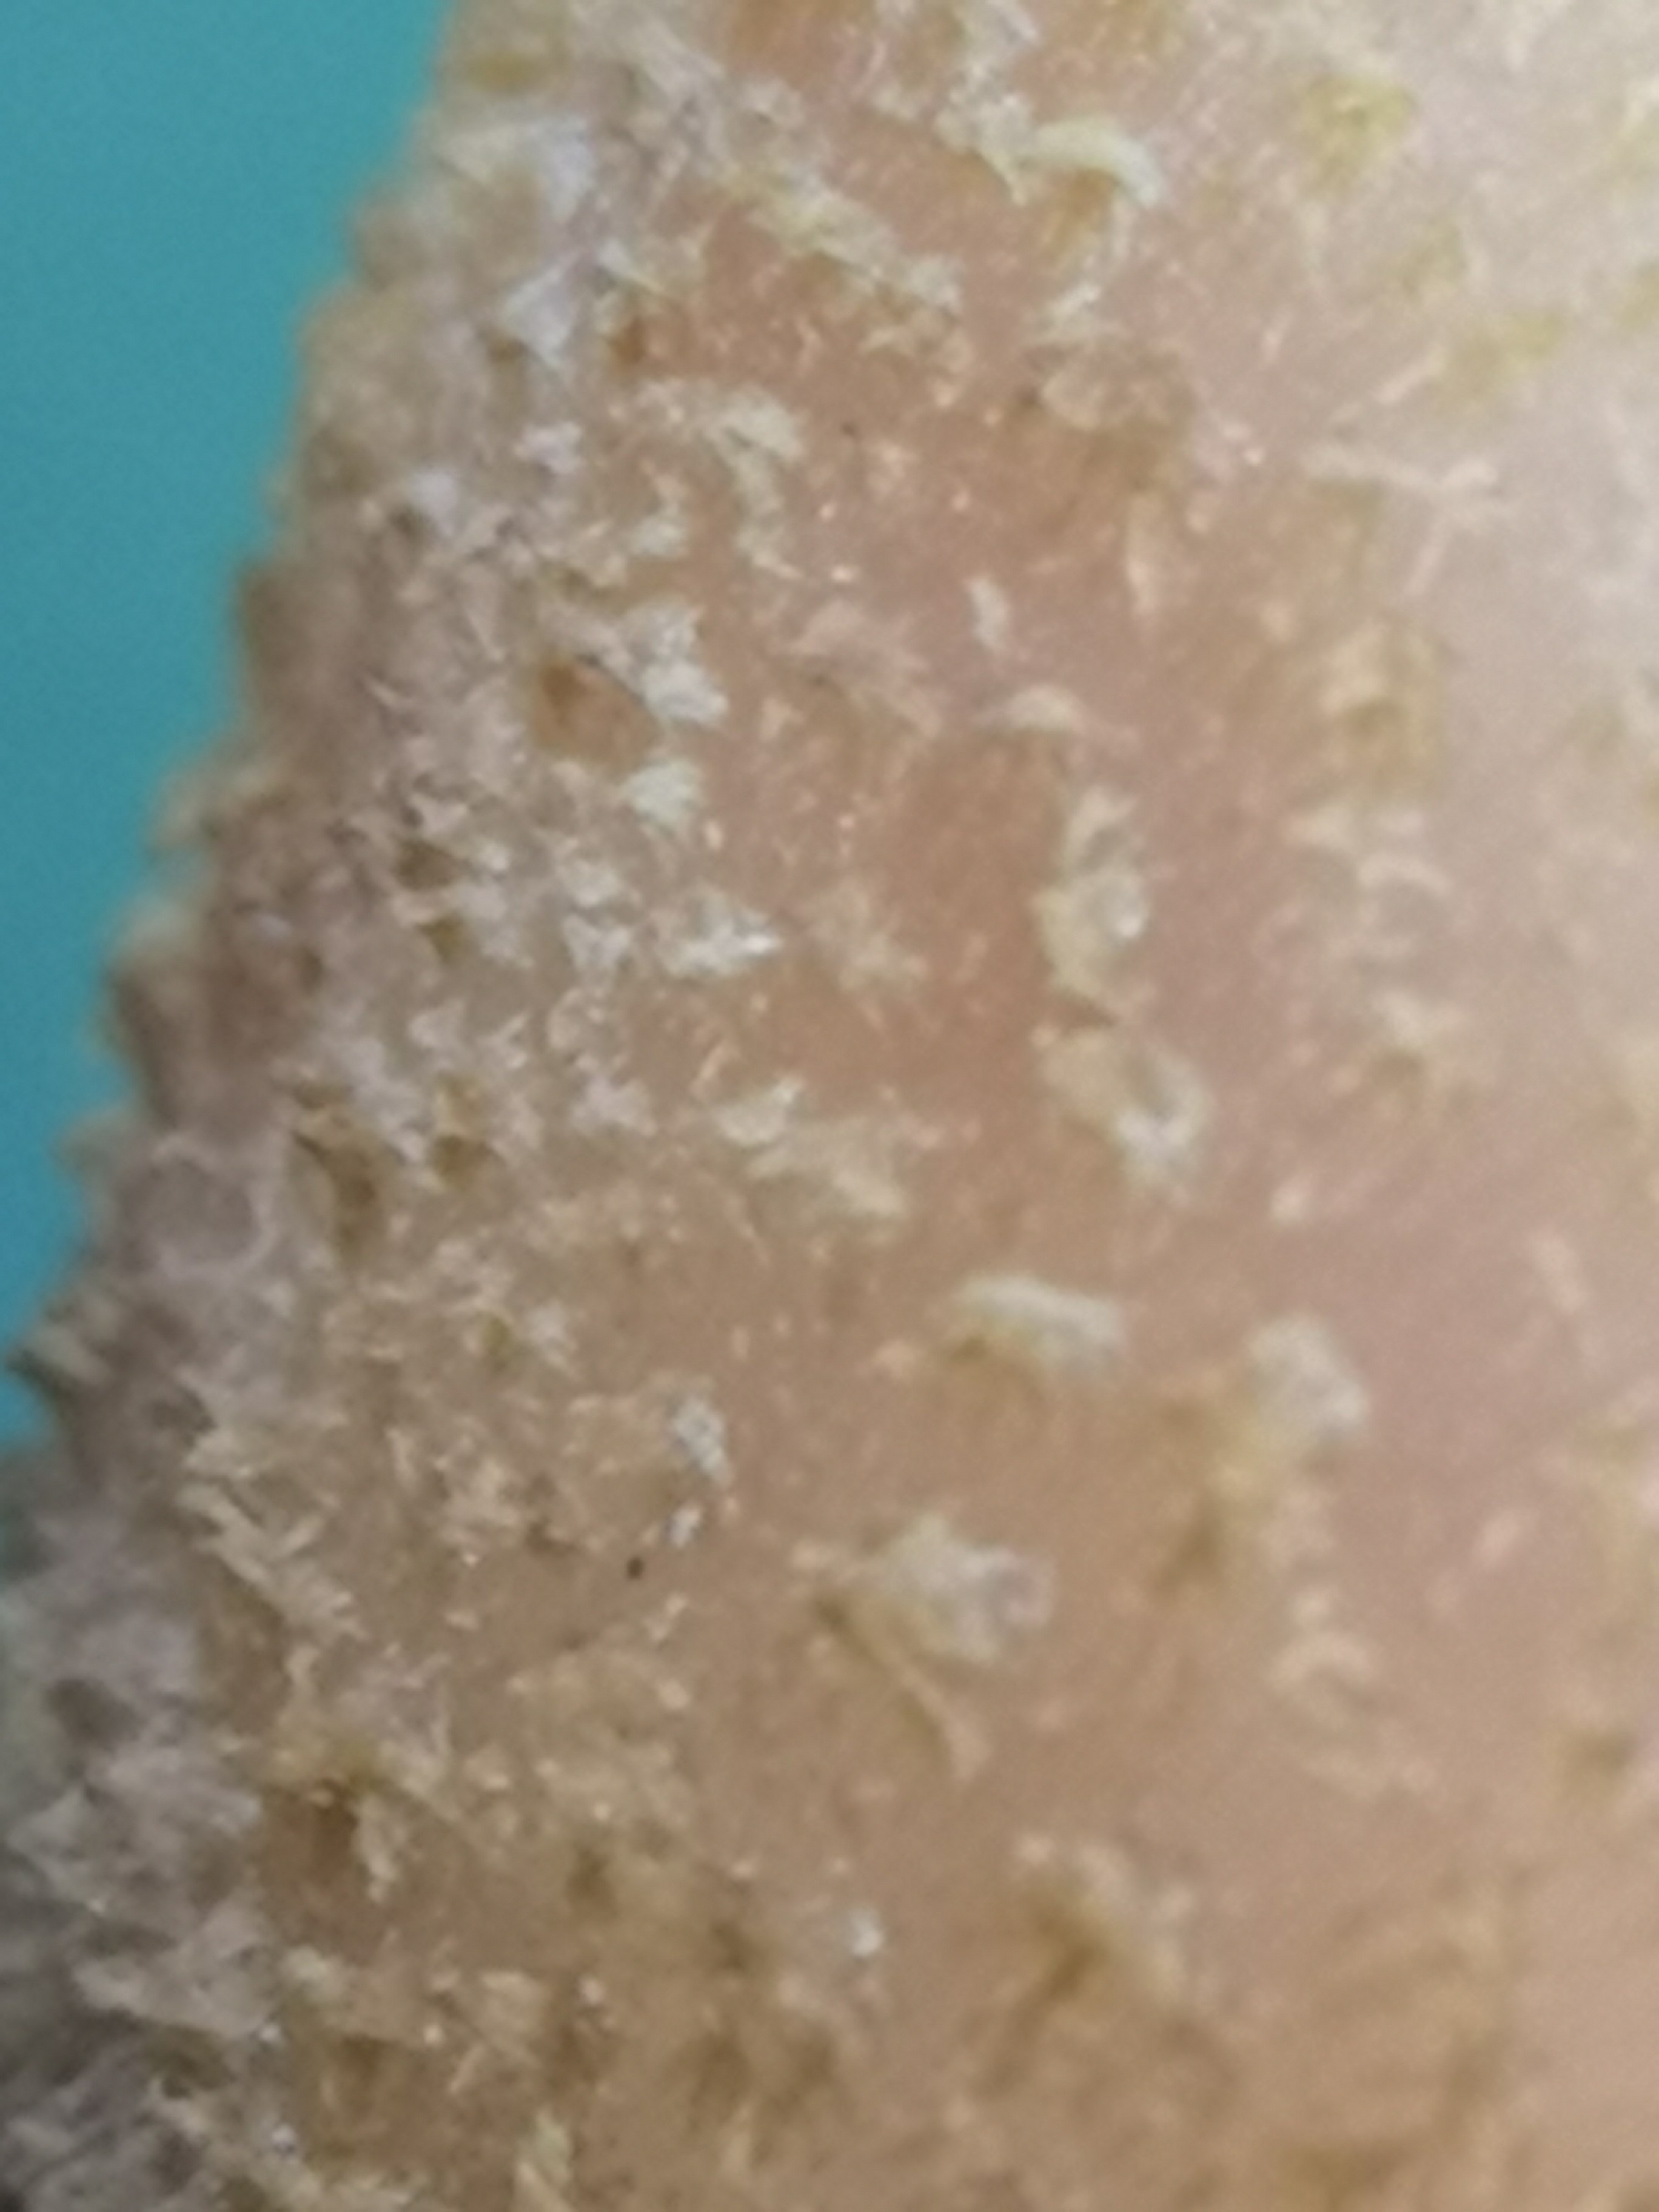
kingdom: Fungi
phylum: Basidiomycota
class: Agaricomycetes
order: Agaricales
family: Physalacriaceae
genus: Armillaria
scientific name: Armillaria lutea
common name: køllestokket honningsvamp
